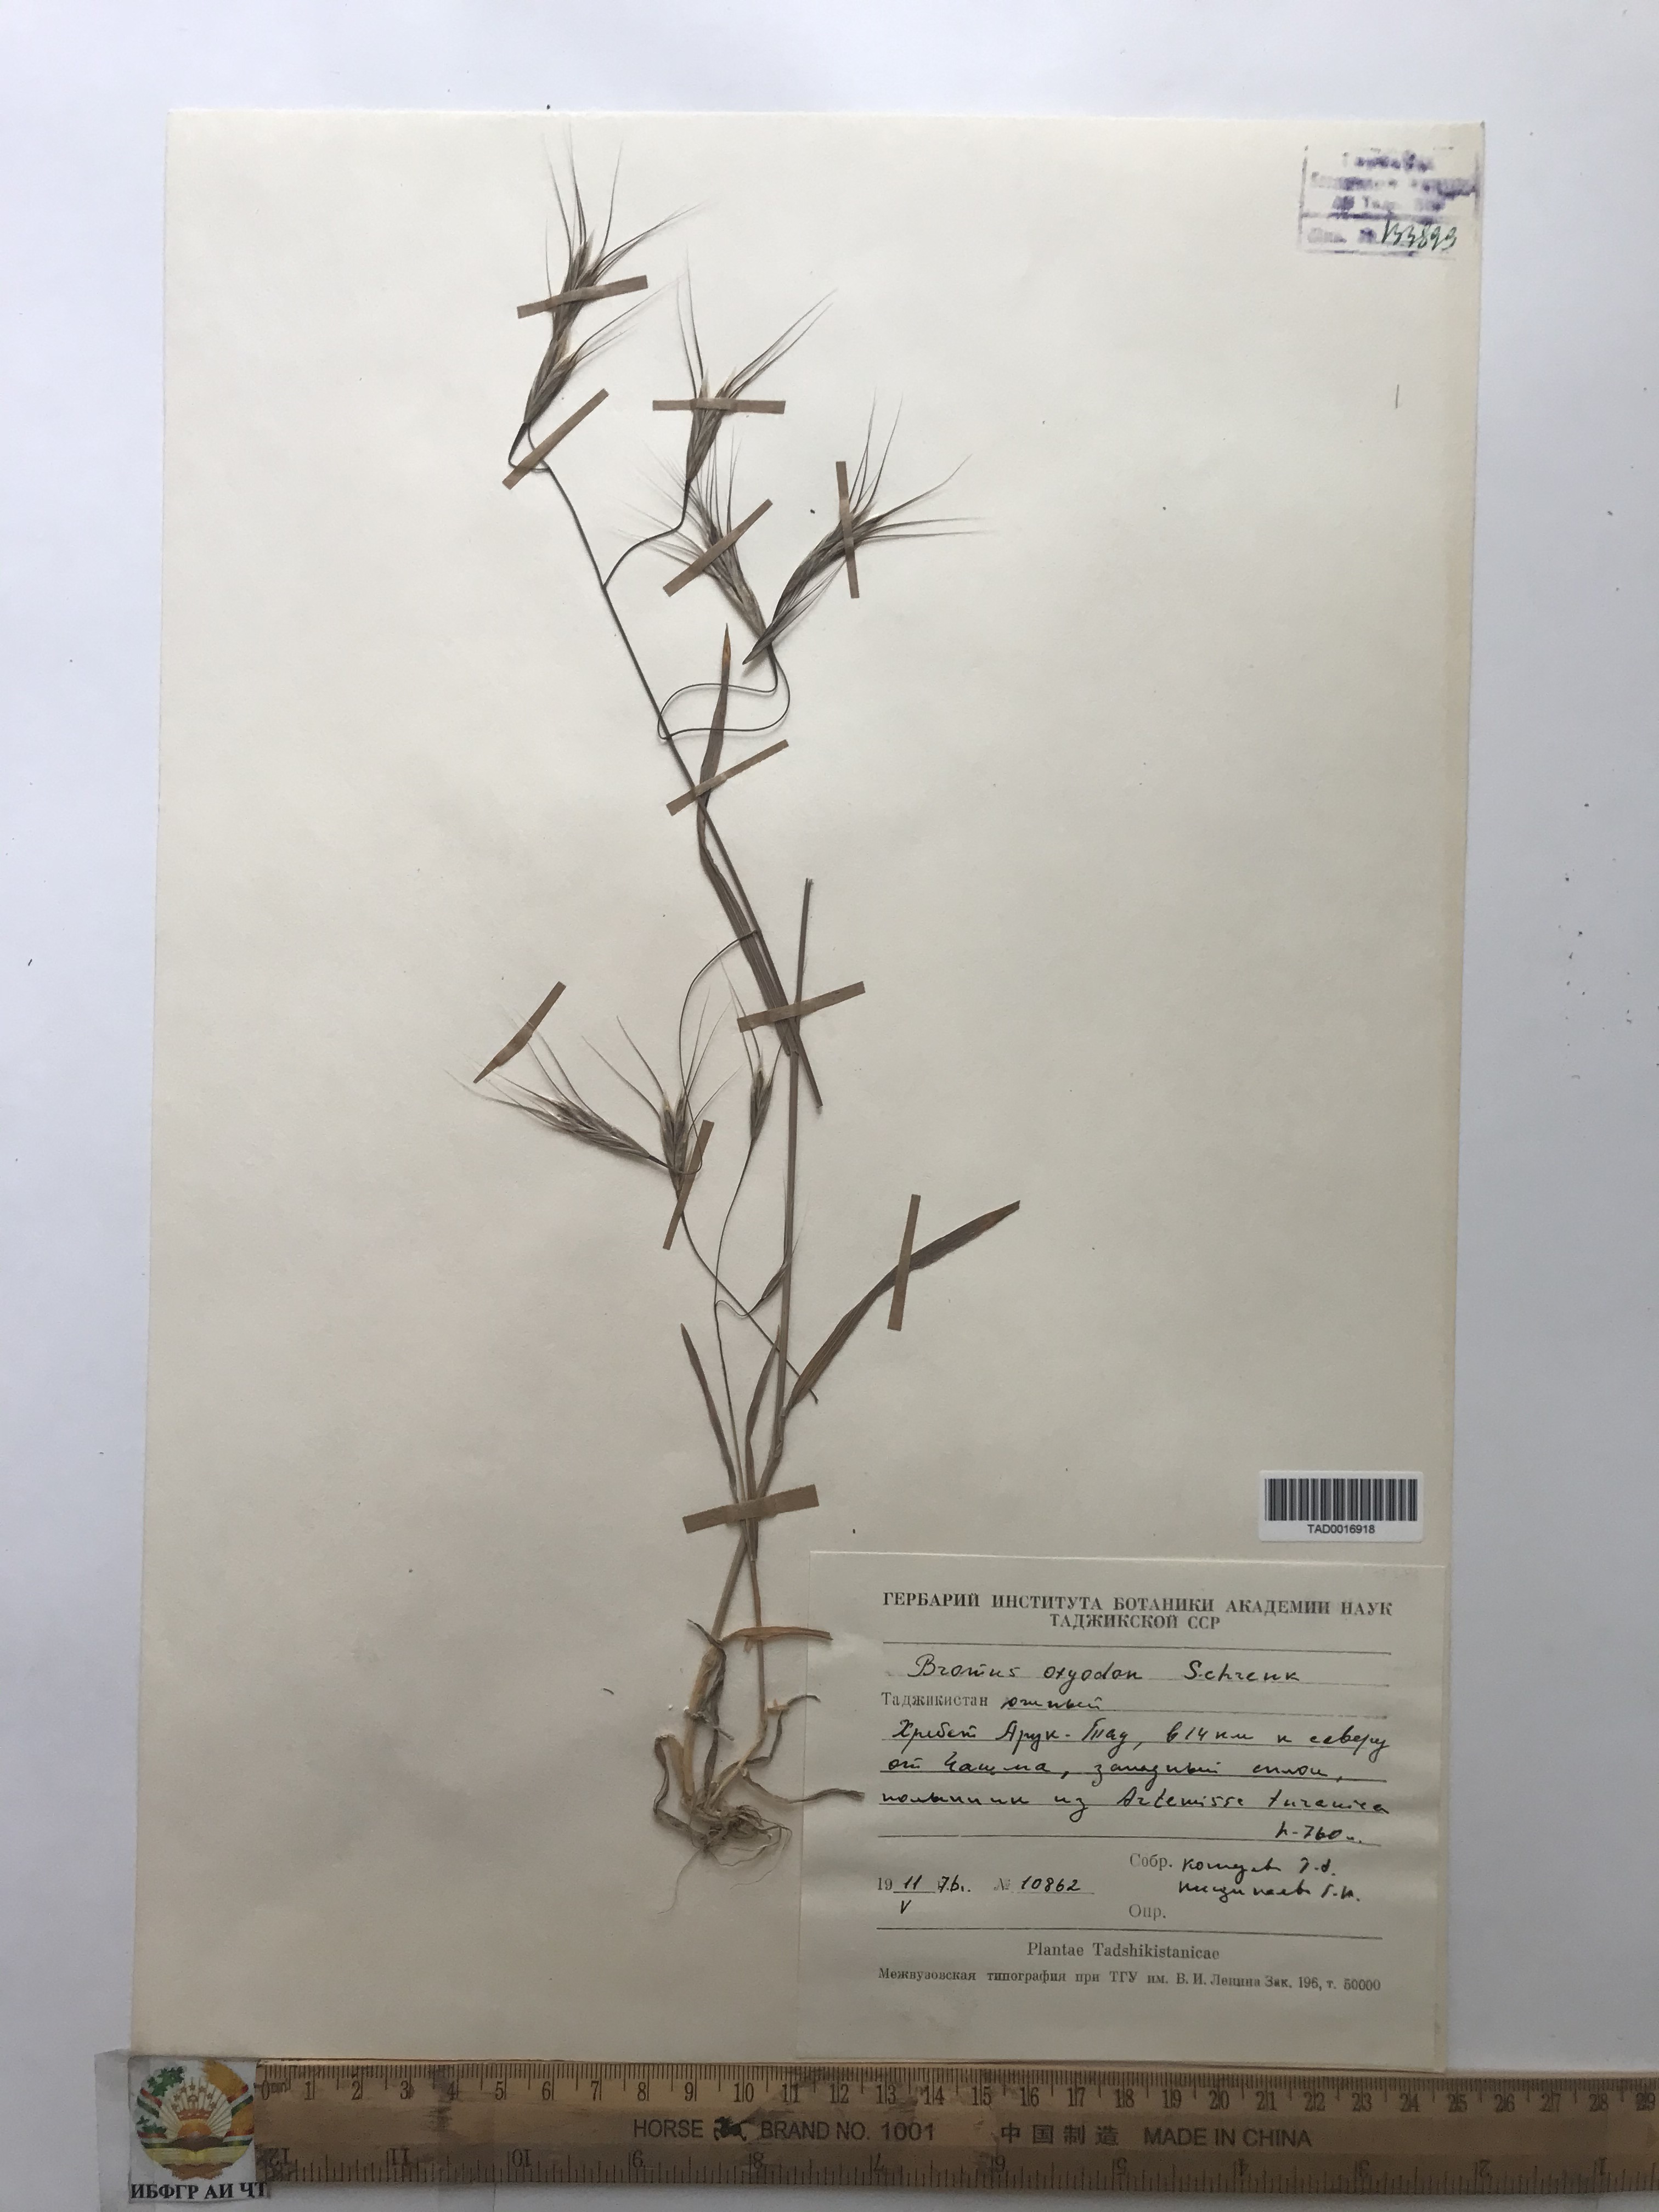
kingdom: Plantae
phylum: Tracheophyta
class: Liliopsida
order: Poales
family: Poaceae
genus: Bromus
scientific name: Bromus oxyodon
